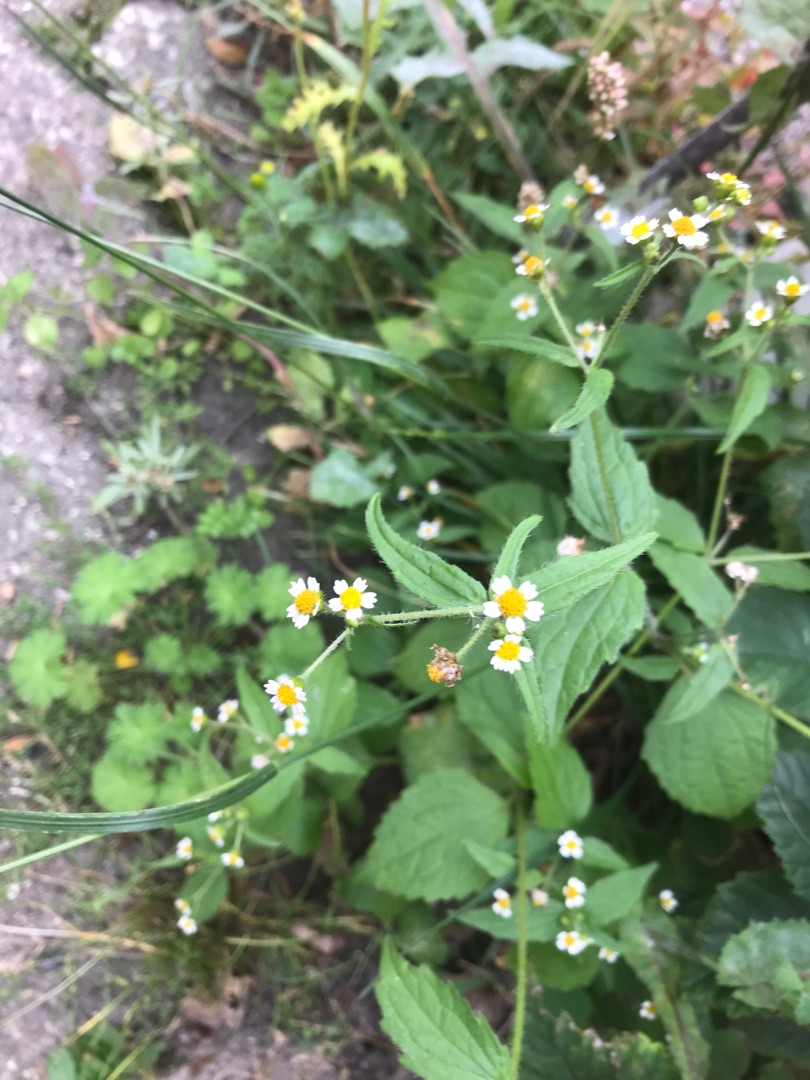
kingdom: Plantae
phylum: Tracheophyta
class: Magnoliopsida
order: Asterales
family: Asteraceae
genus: Galinsoga
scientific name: Galinsoga quadriradiata
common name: Kirtel-kortstråle
